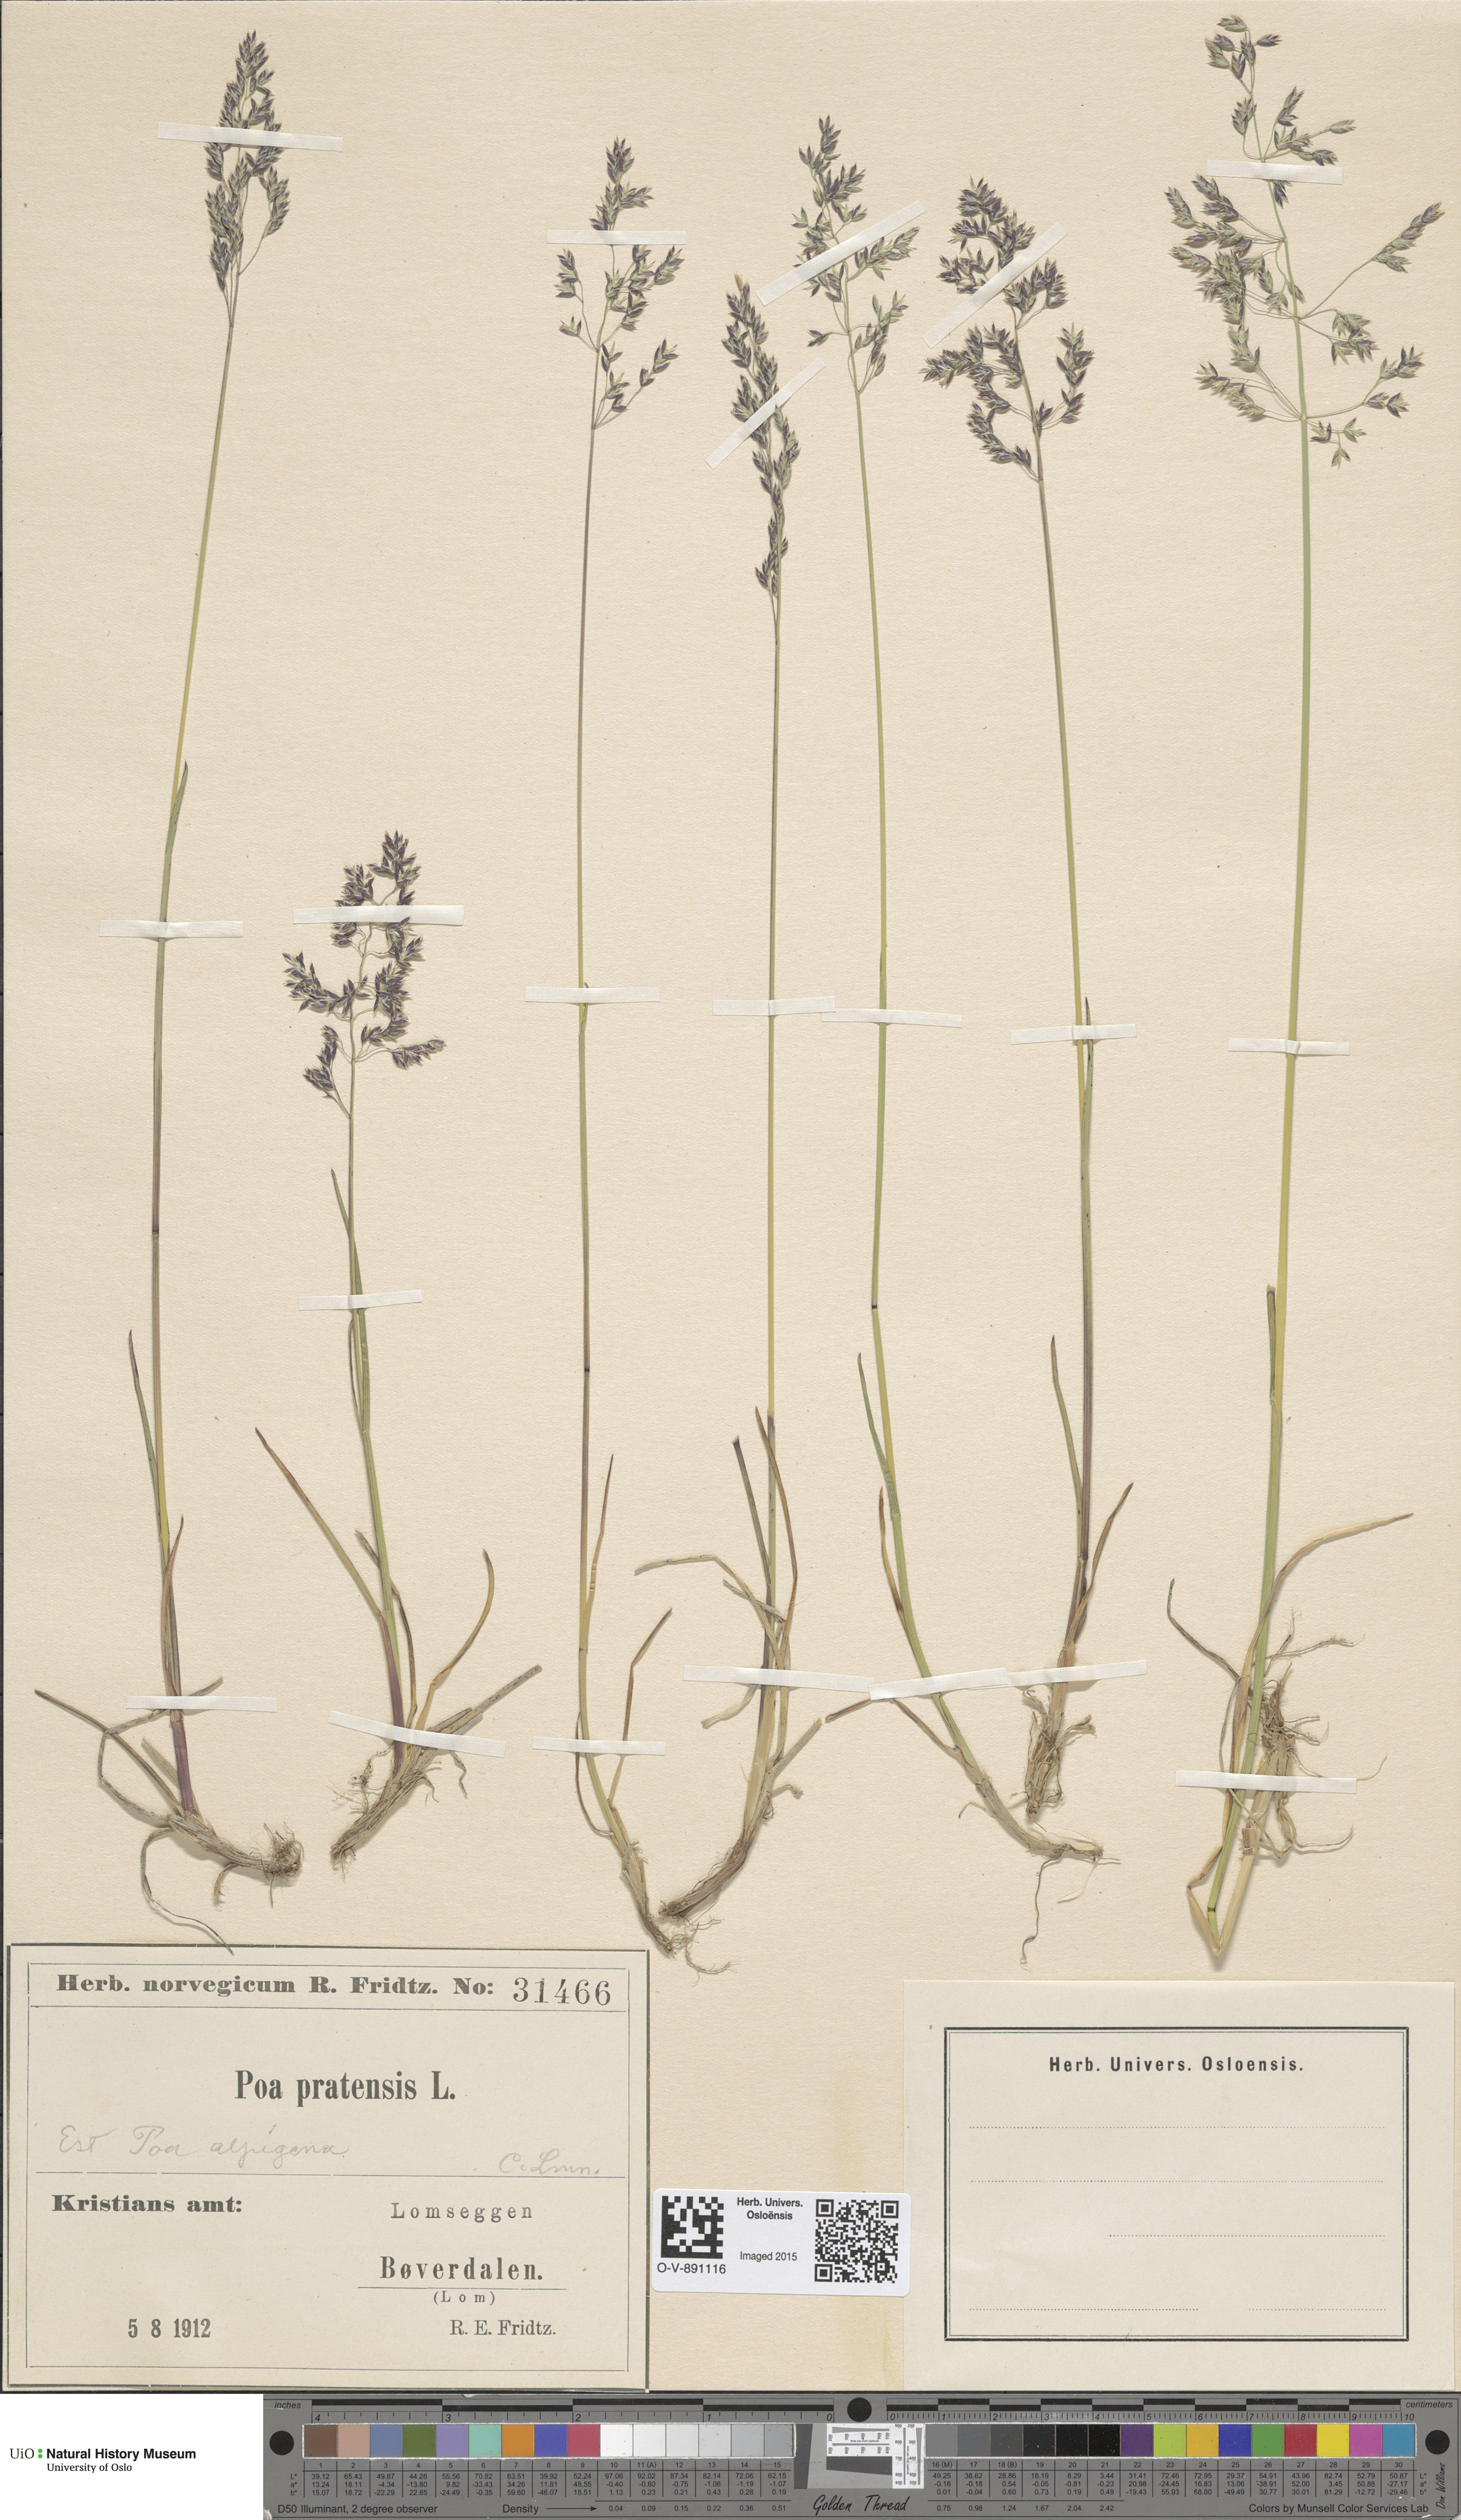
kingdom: Plantae
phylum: Tracheophyta
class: Liliopsida
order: Poales
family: Poaceae
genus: Poa
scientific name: Poa alpigena
